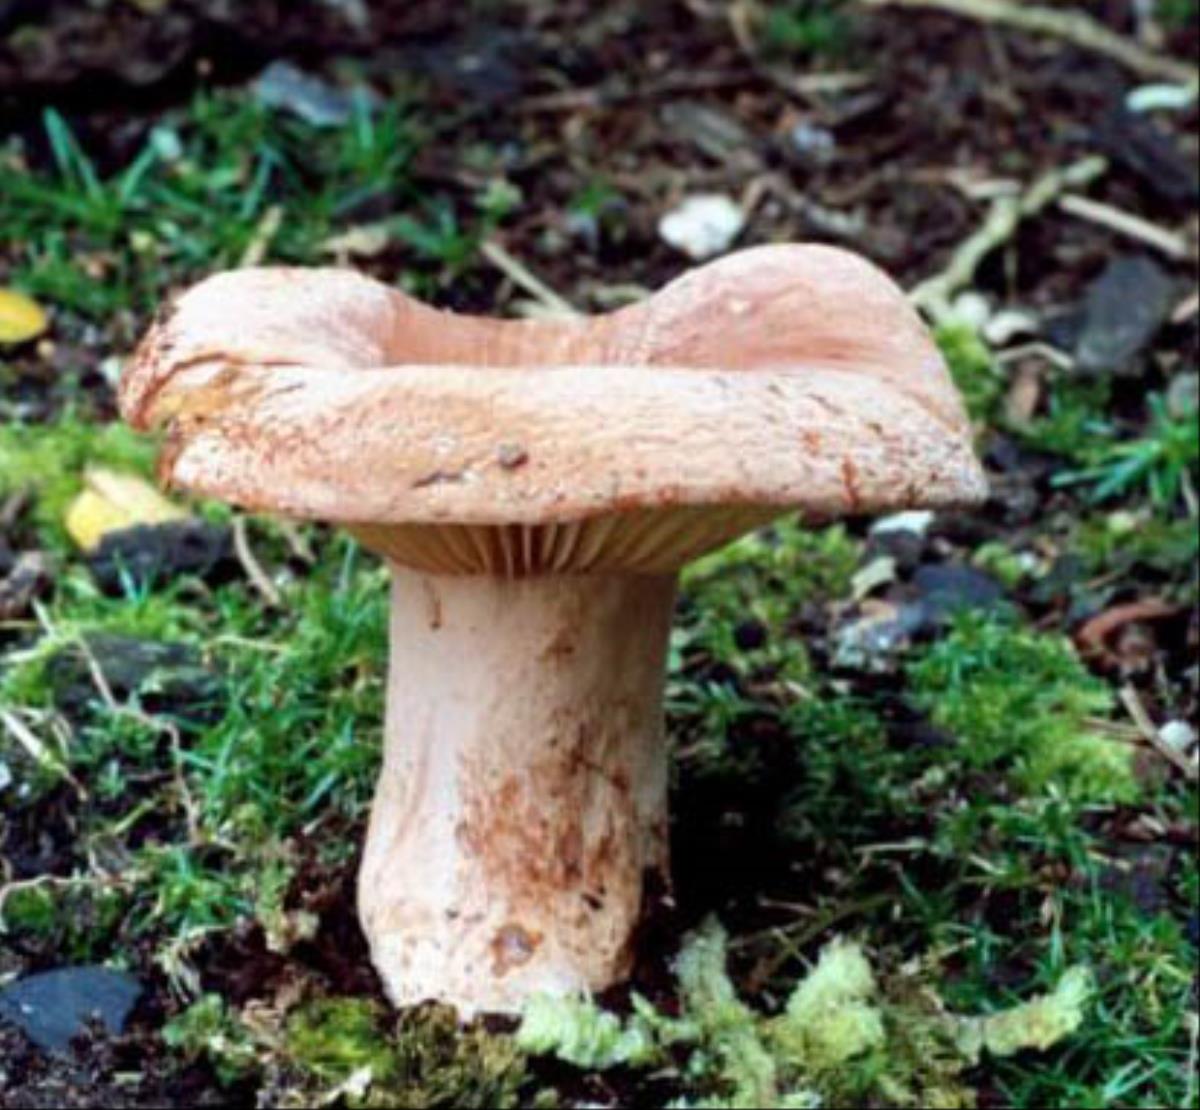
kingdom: Fungi
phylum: Basidiomycota
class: Agaricomycetes
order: Russulales
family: Russulaceae
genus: Lactifluus
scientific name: Lactifluus aurantioruber
